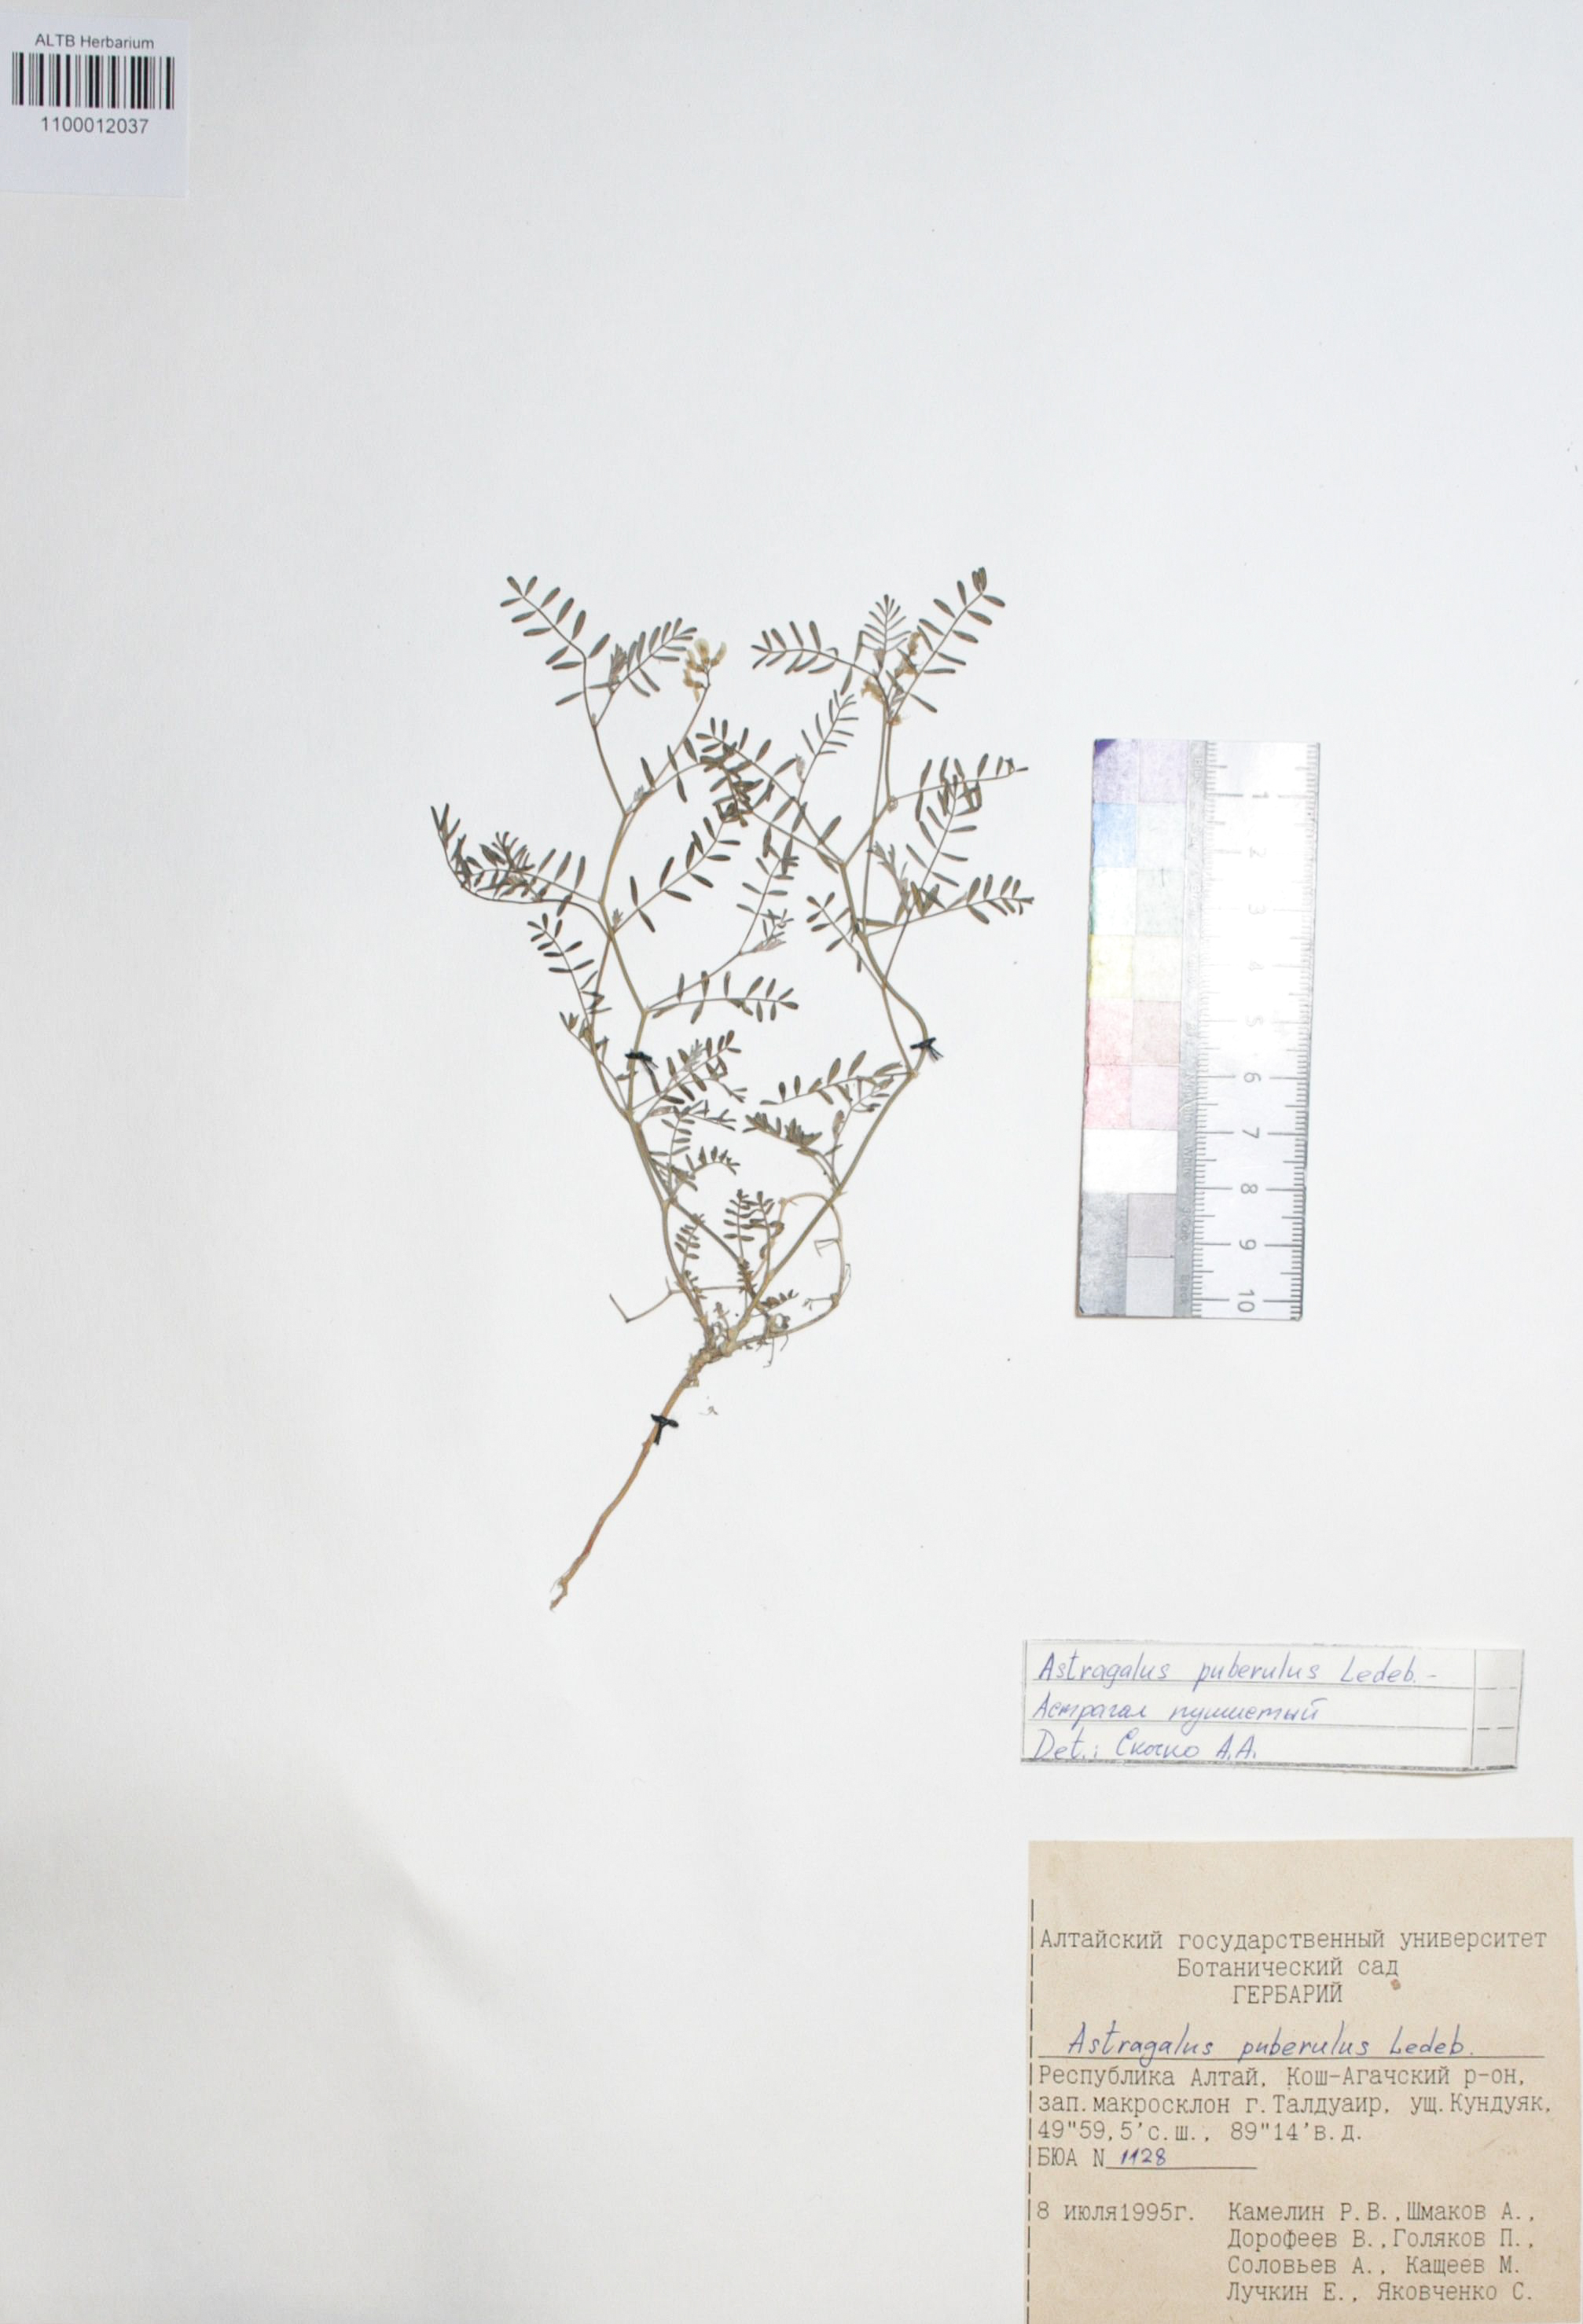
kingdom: Plantae
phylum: Tracheophyta
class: Magnoliopsida
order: Fabales
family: Fabaceae
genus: Astragalus
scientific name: Astragalus puberulus
